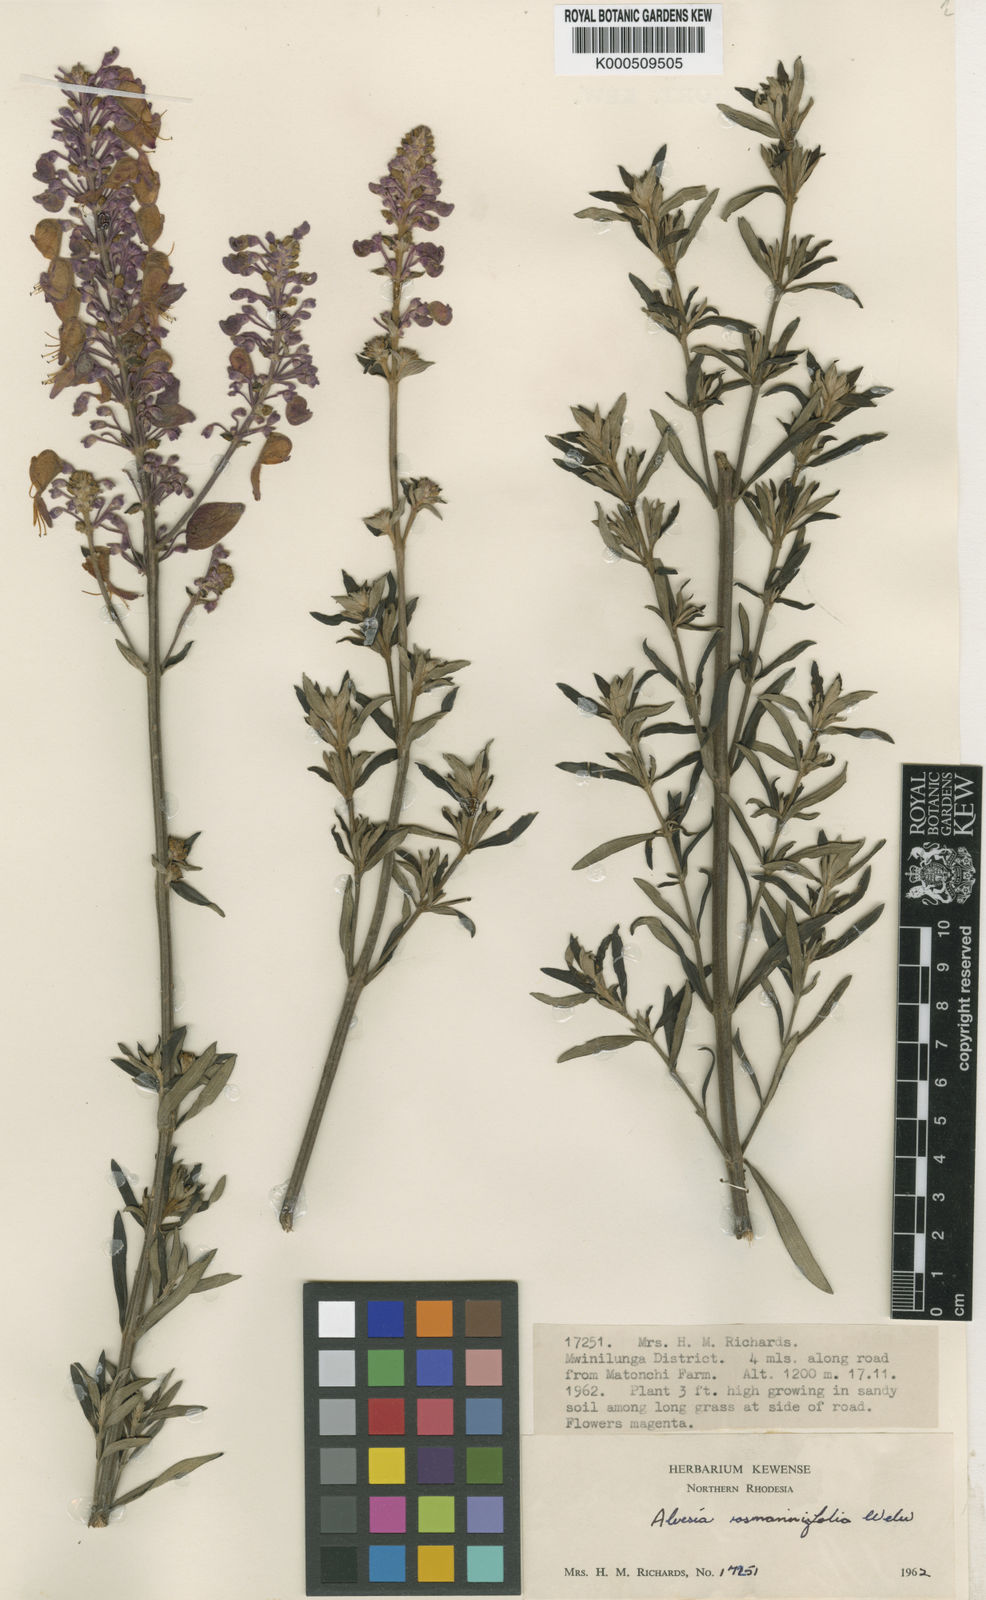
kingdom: Plantae
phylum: Tracheophyta
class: Magnoliopsida
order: Lamiales
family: Lamiaceae
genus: Alvesia
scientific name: Alvesia rosmarinifolia
